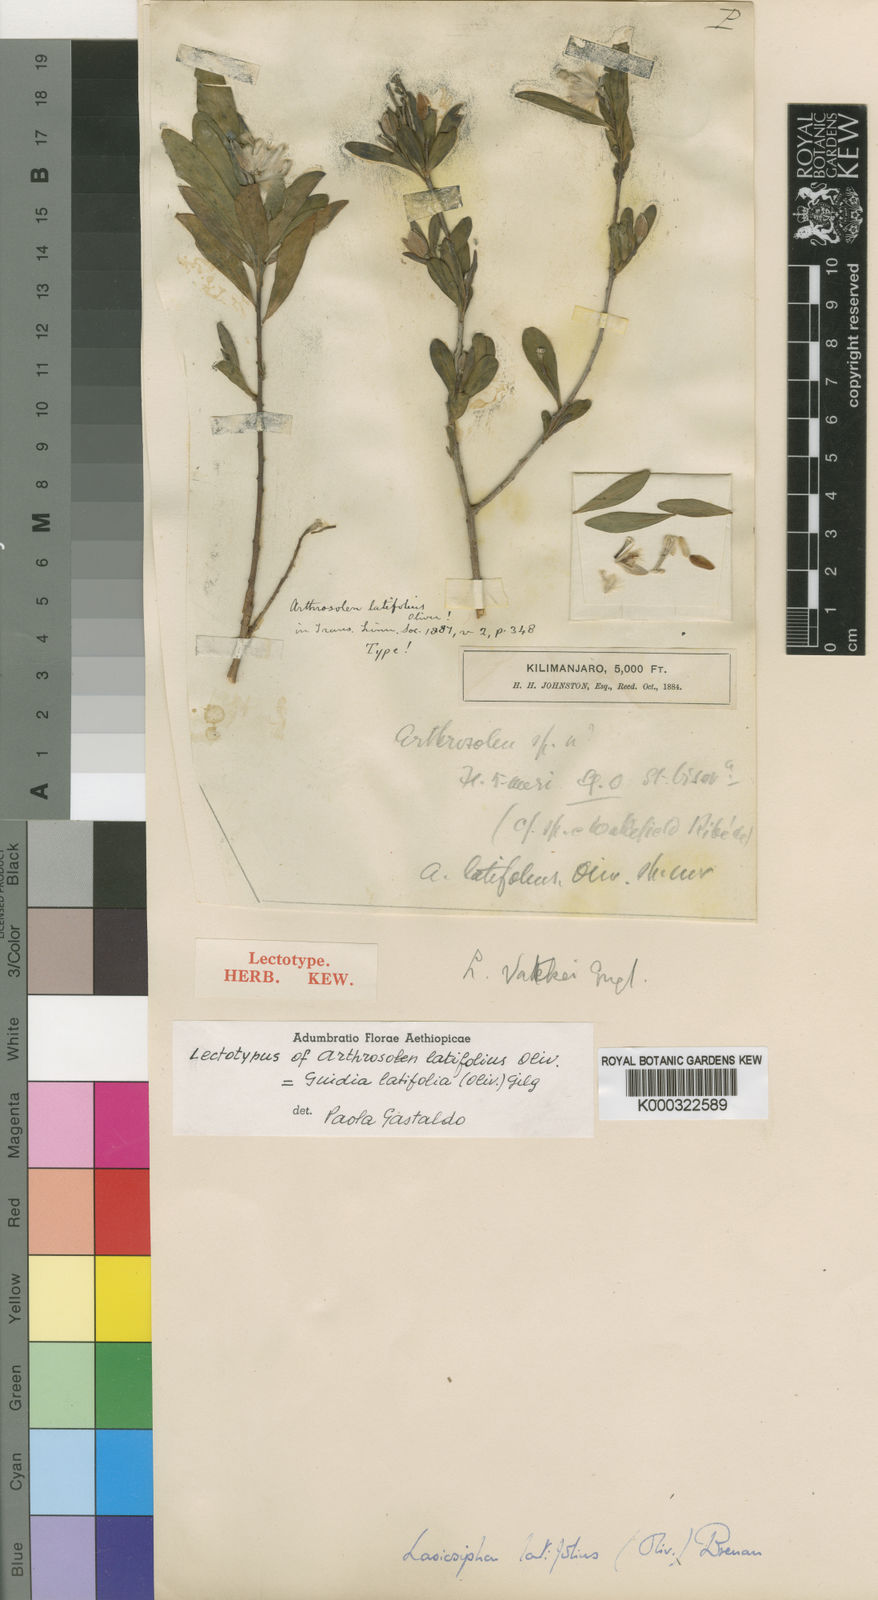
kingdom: Plantae
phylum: Tracheophyta
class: Magnoliopsida
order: Malvales
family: Thymelaeaceae
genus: Gnidia
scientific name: Gnidia latifolia
